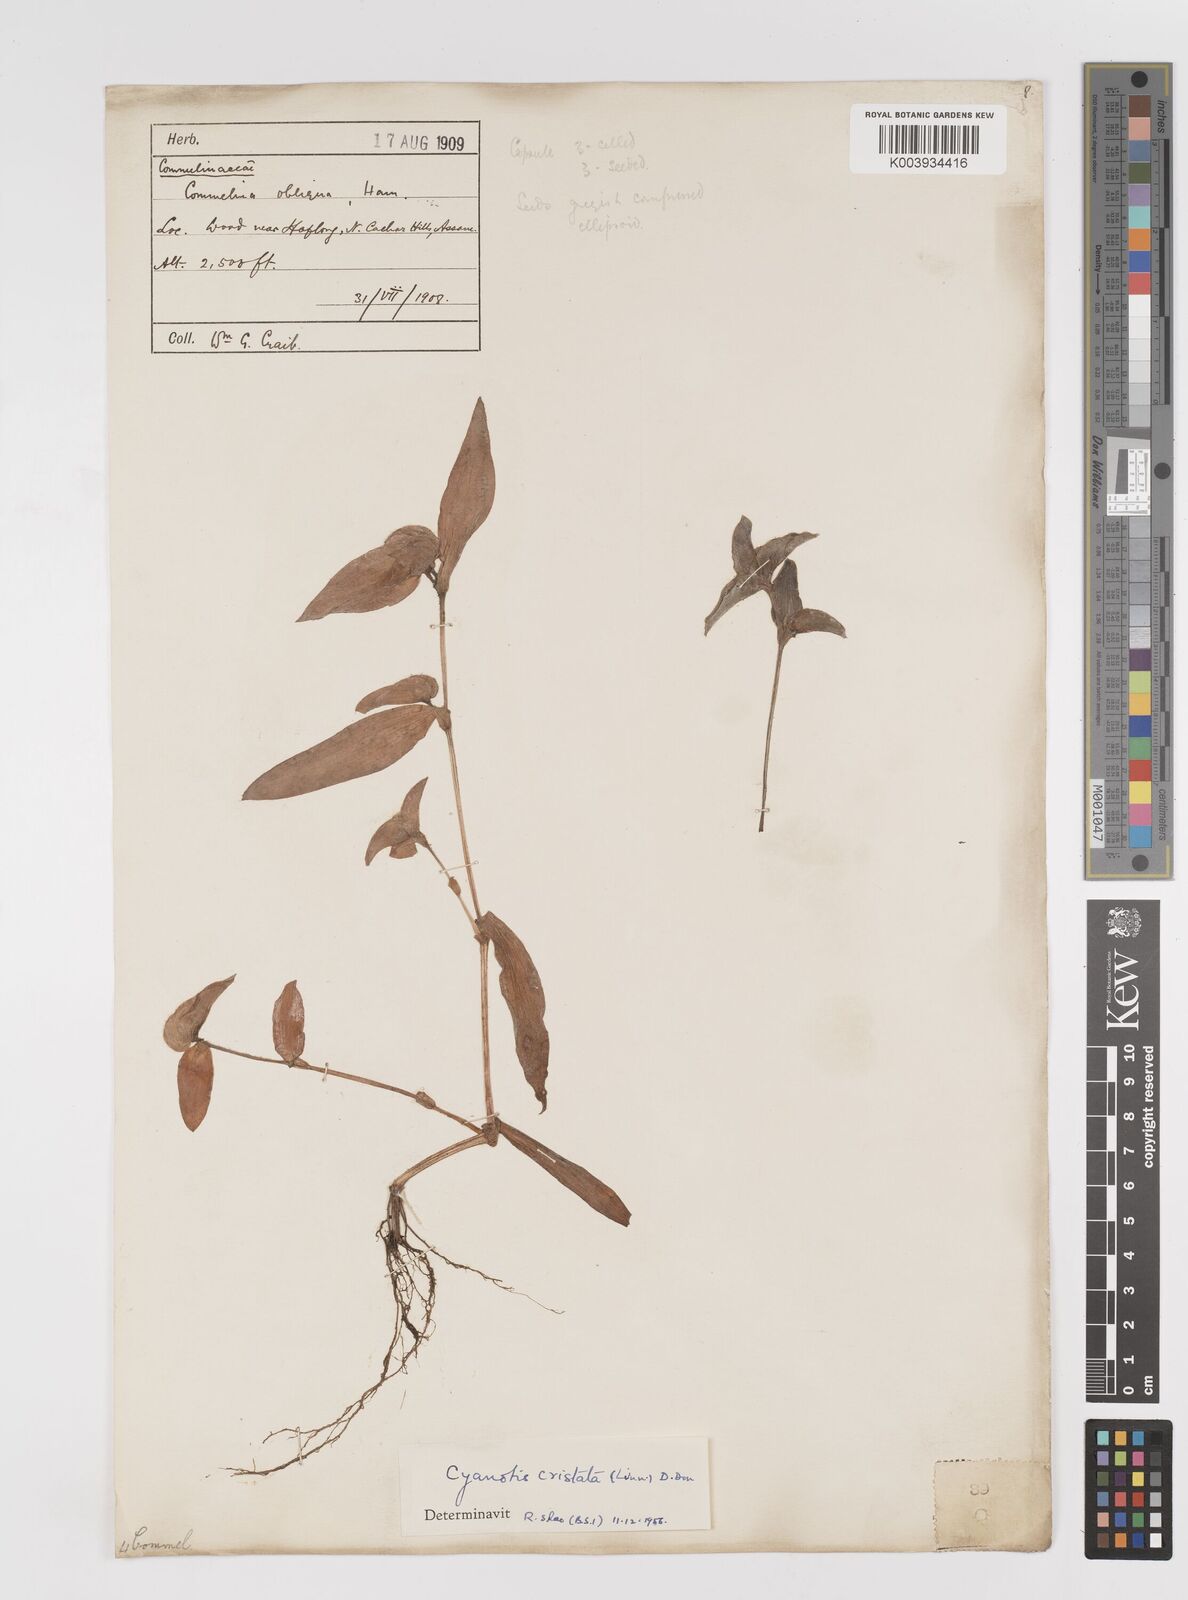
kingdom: Plantae
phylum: Tracheophyta
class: Liliopsida
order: Commelinales
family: Commelinaceae
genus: Cyanotis
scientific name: Cyanotis cristata
